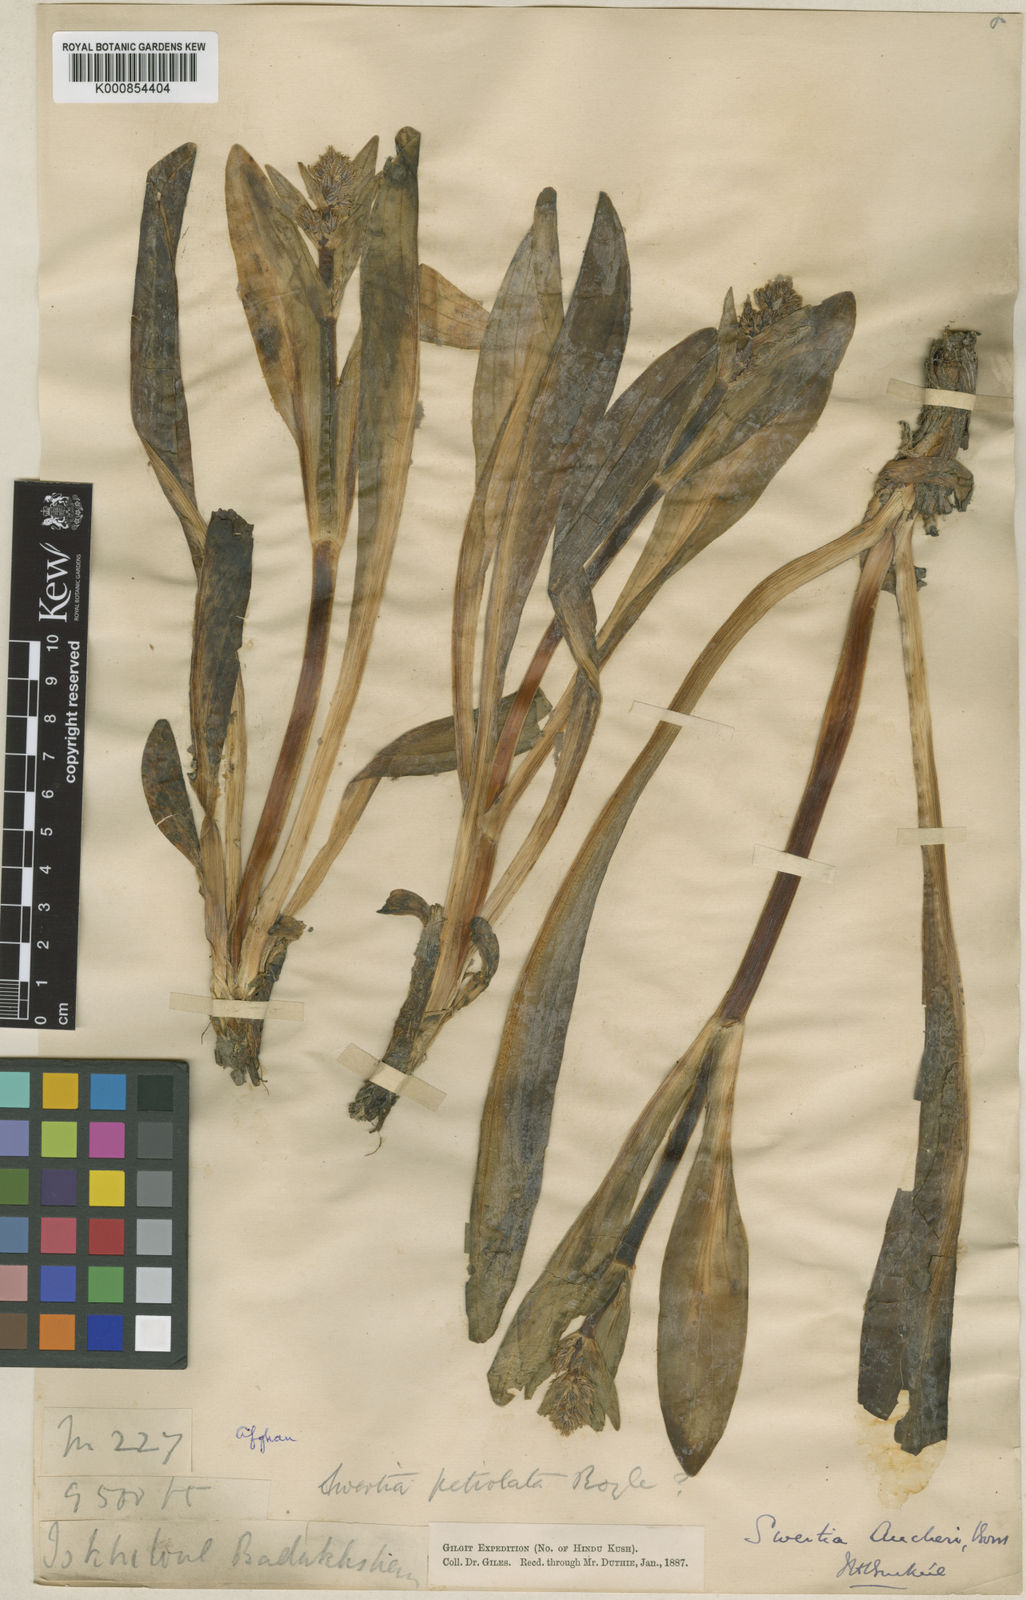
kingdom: Plantae
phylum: Tracheophyta
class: Magnoliopsida
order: Gentianales
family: Gentianaceae
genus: Swertia
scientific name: Swertia longifolia
